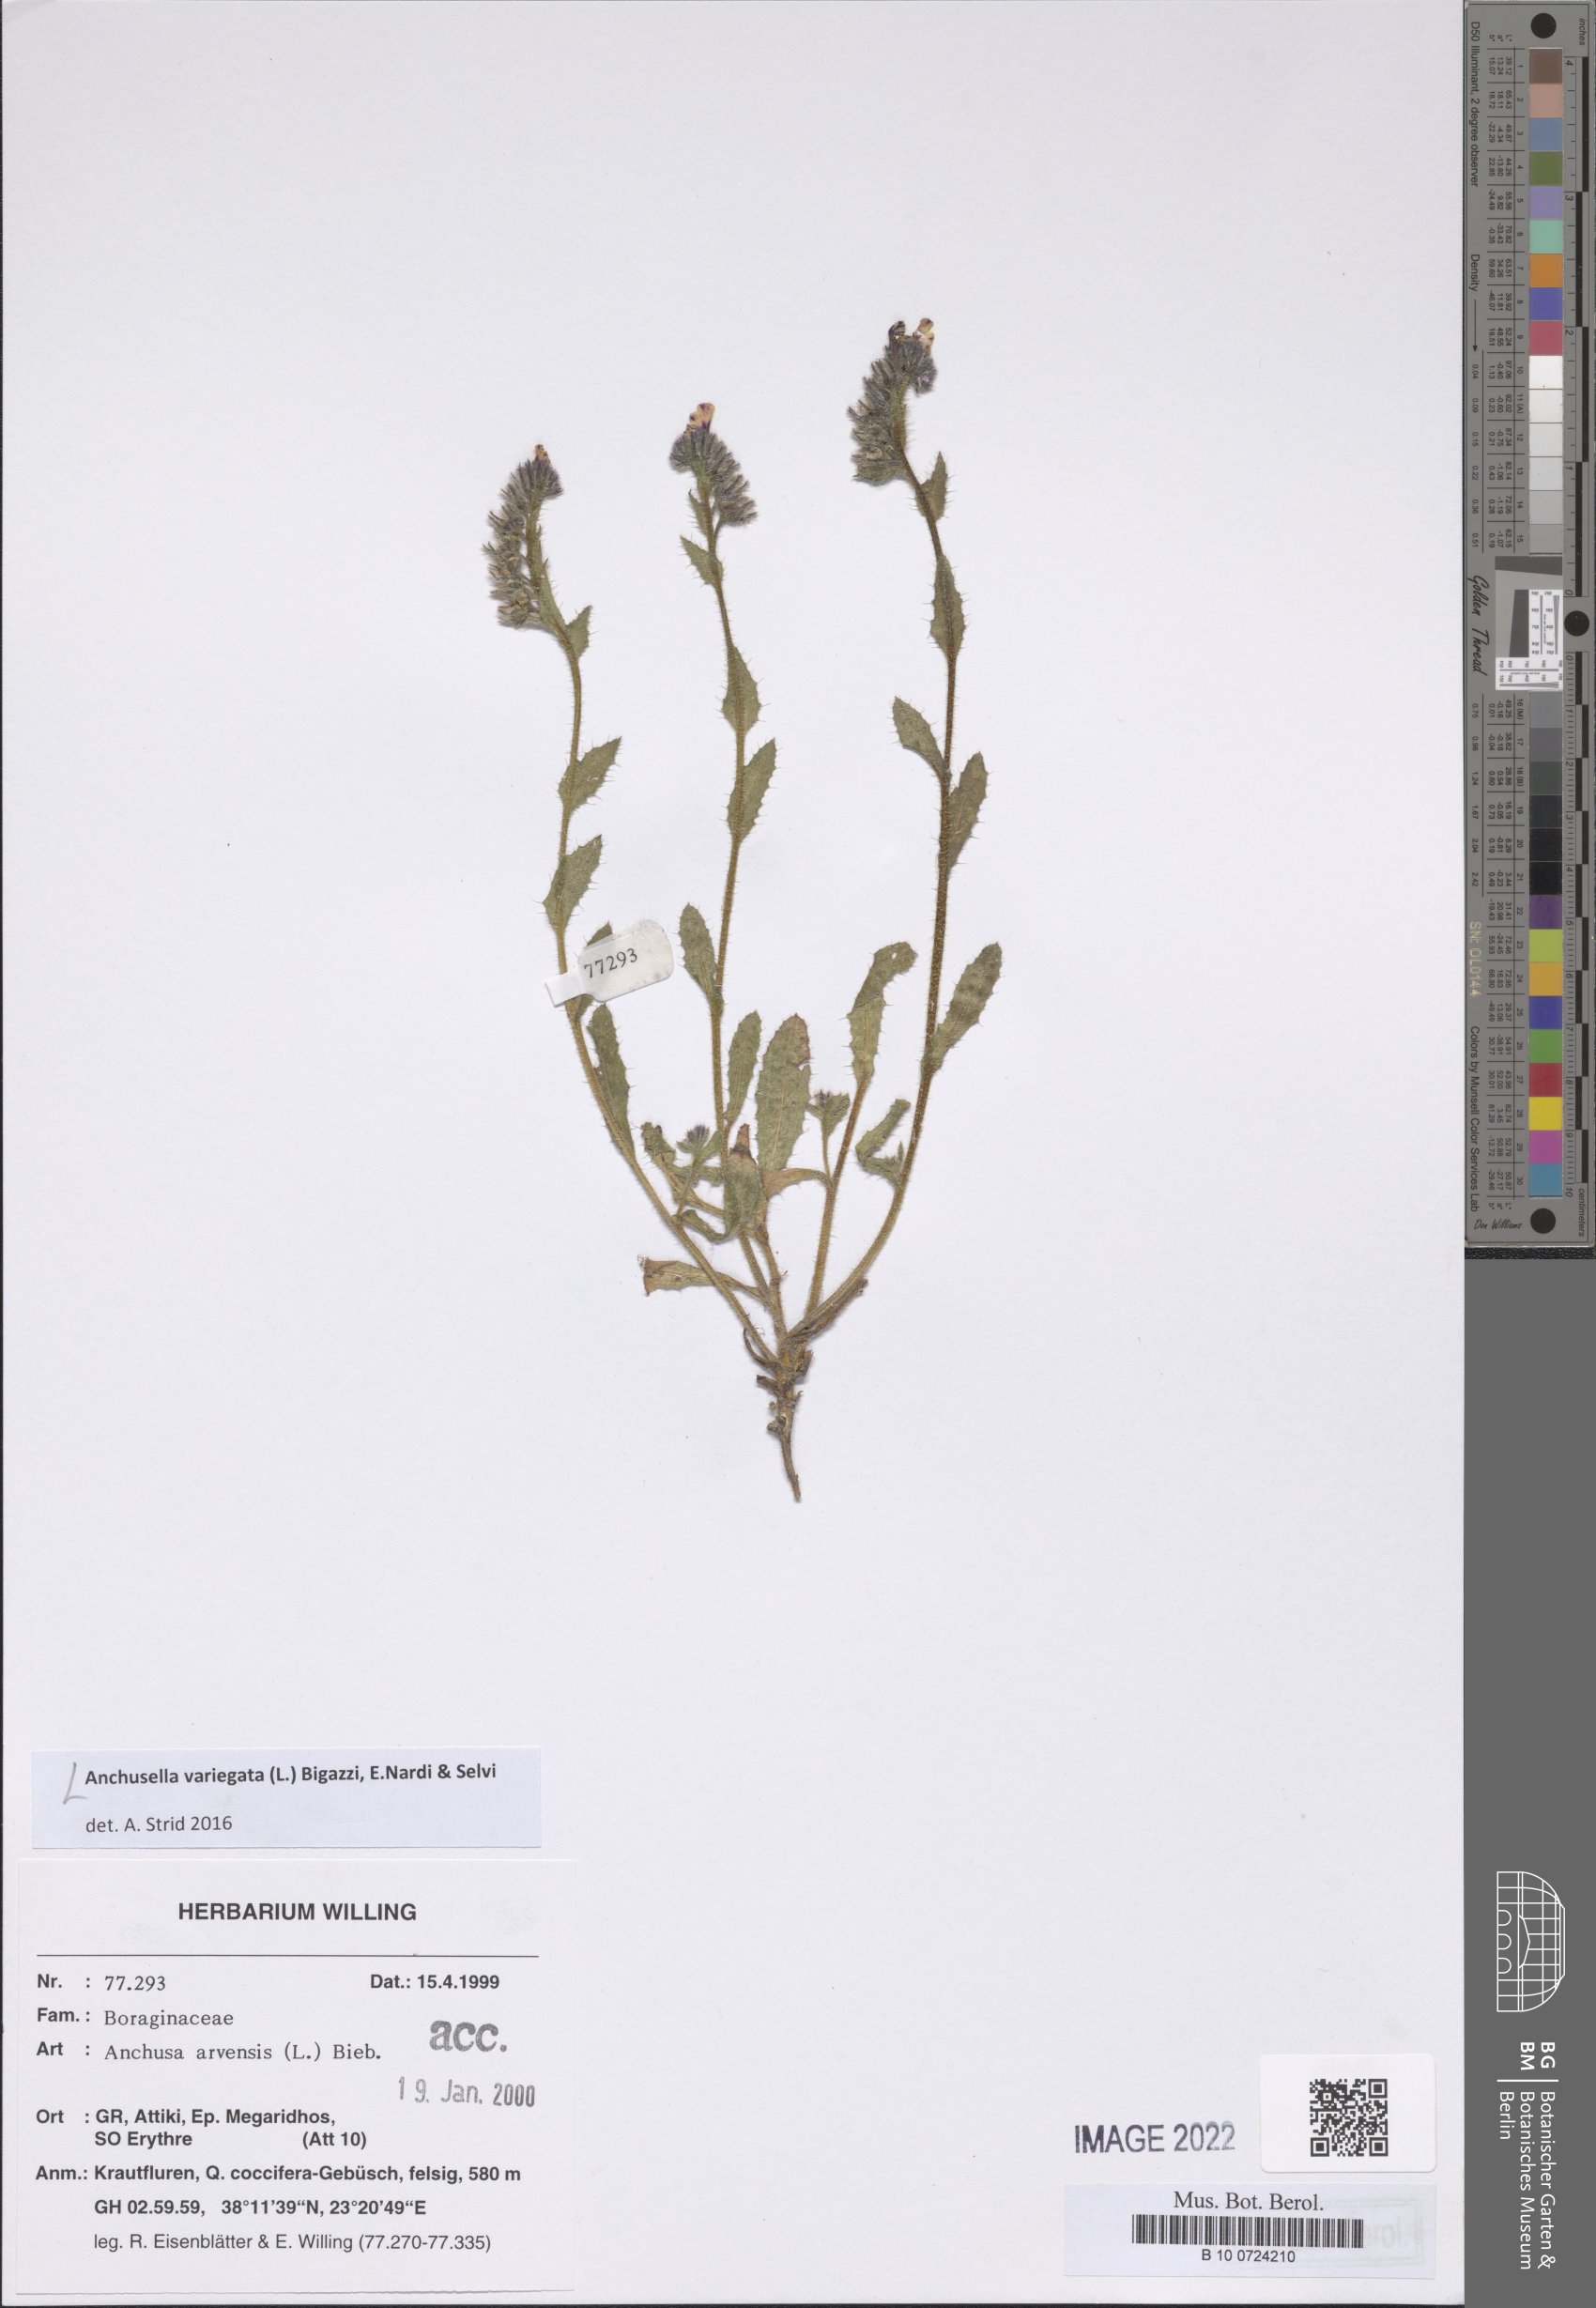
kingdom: Plantae
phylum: Tracheophyta
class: Magnoliopsida
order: Boraginales
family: Boraginaceae
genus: Anchusella
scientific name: Anchusella variegata
